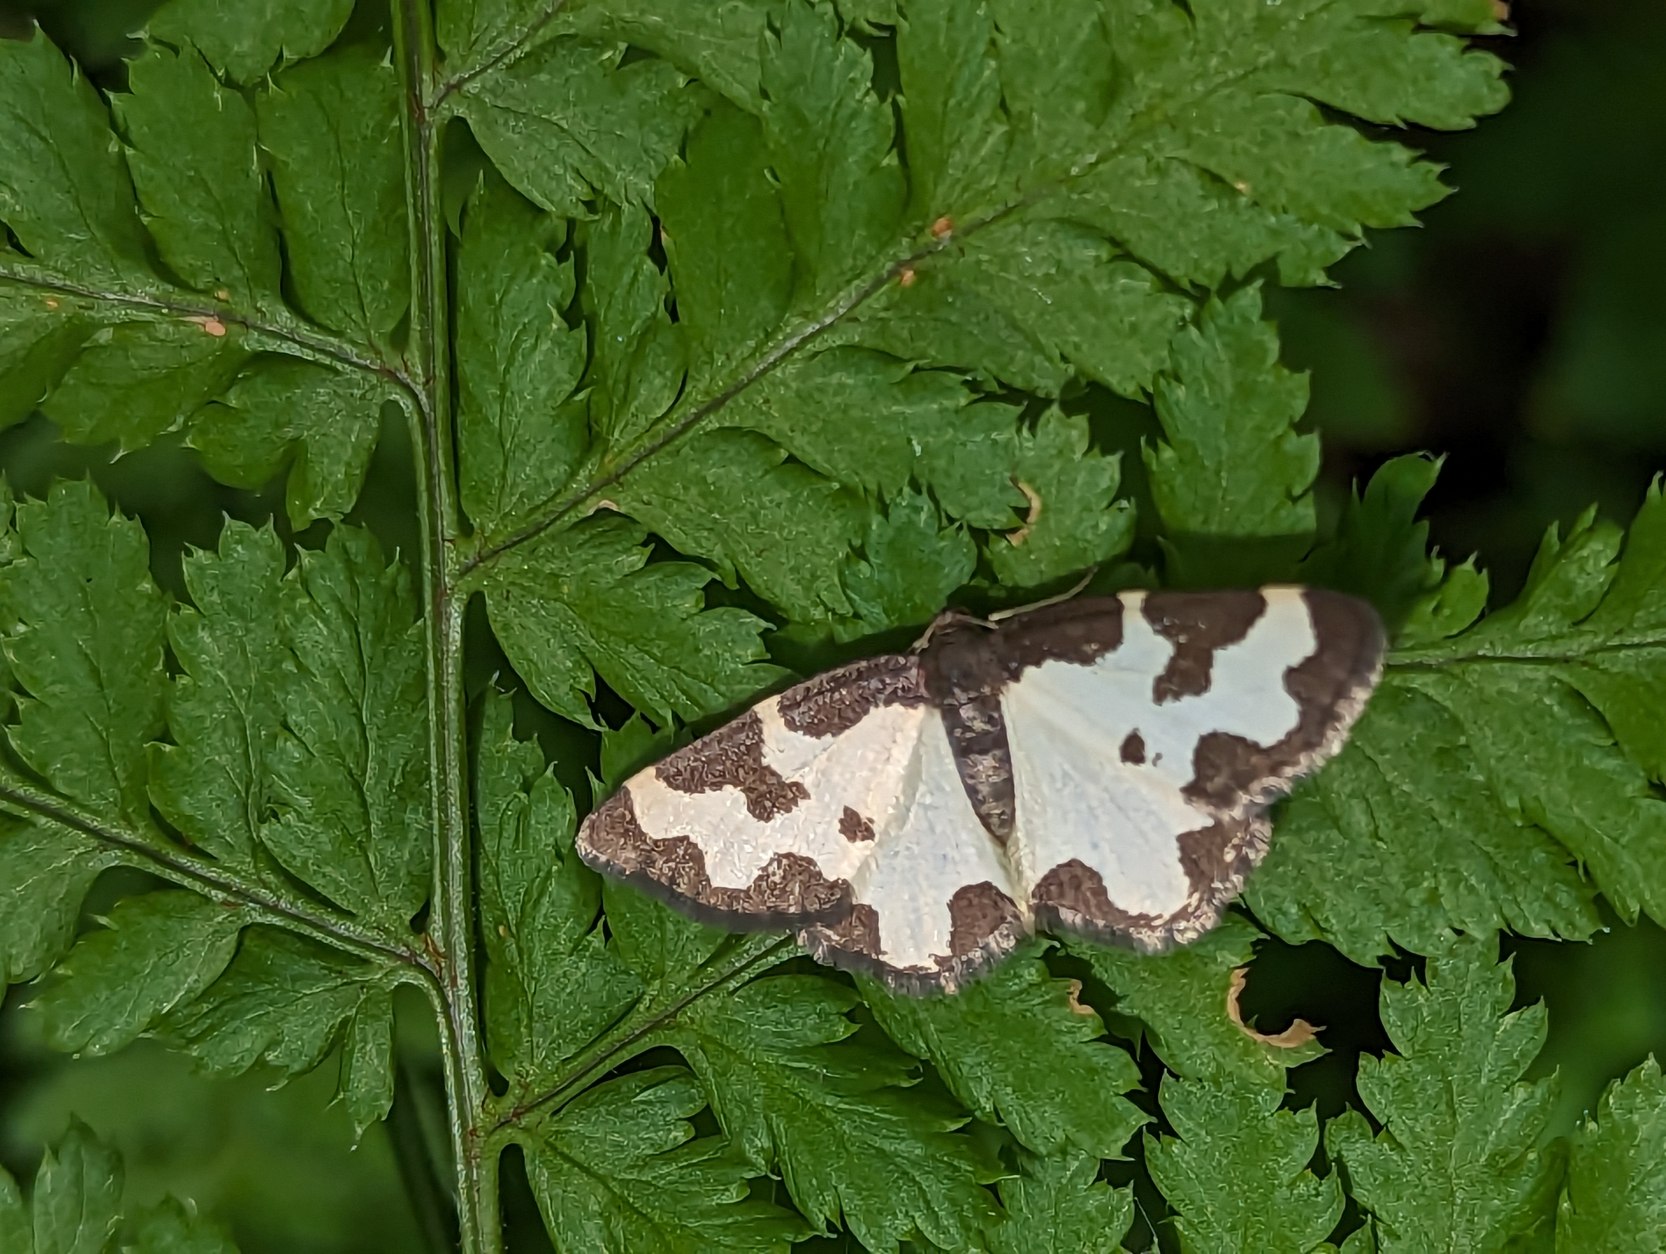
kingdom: Animalia
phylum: Arthropoda
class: Insecta
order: Lepidoptera
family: Geometridae
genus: Lomaspilis
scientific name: Lomaspilis marginata
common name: Sortrandet måler
